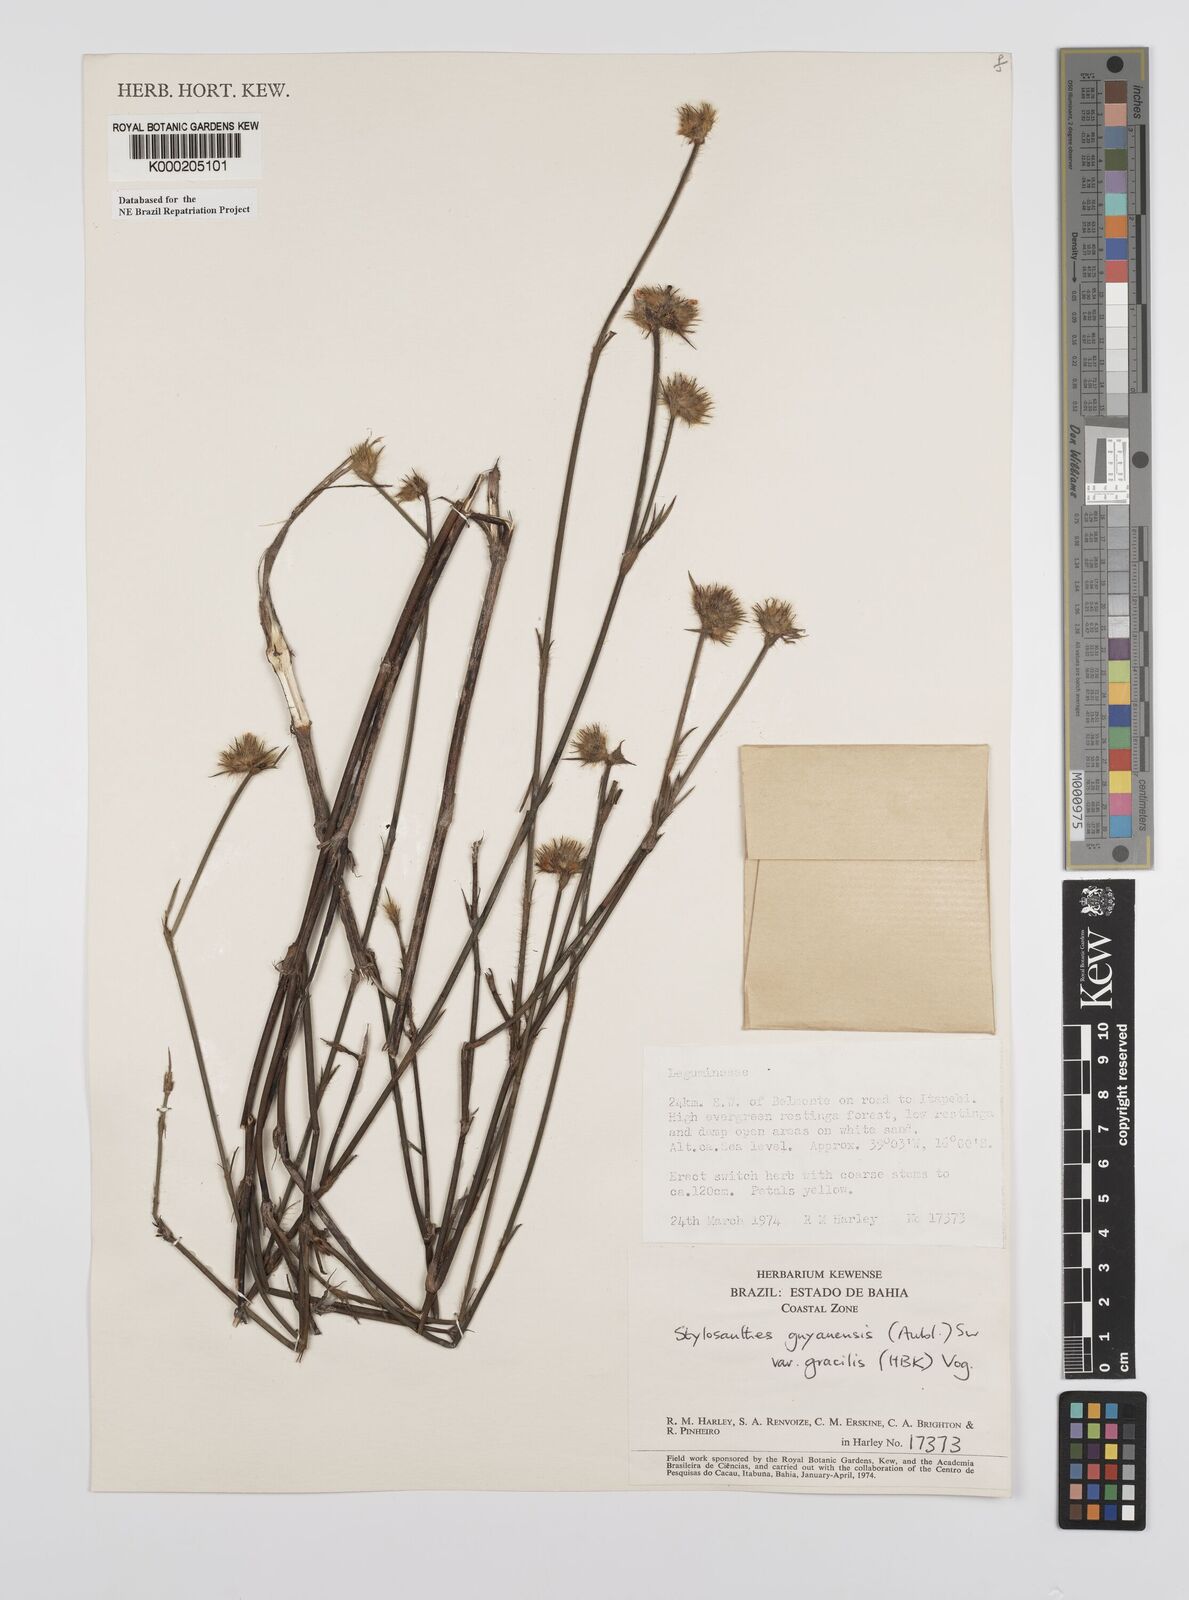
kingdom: Plantae
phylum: Tracheophyta
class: Magnoliopsida
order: Fabales
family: Fabaceae
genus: Stylosanthes
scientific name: Stylosanthes guianensis
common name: Pencil flower
